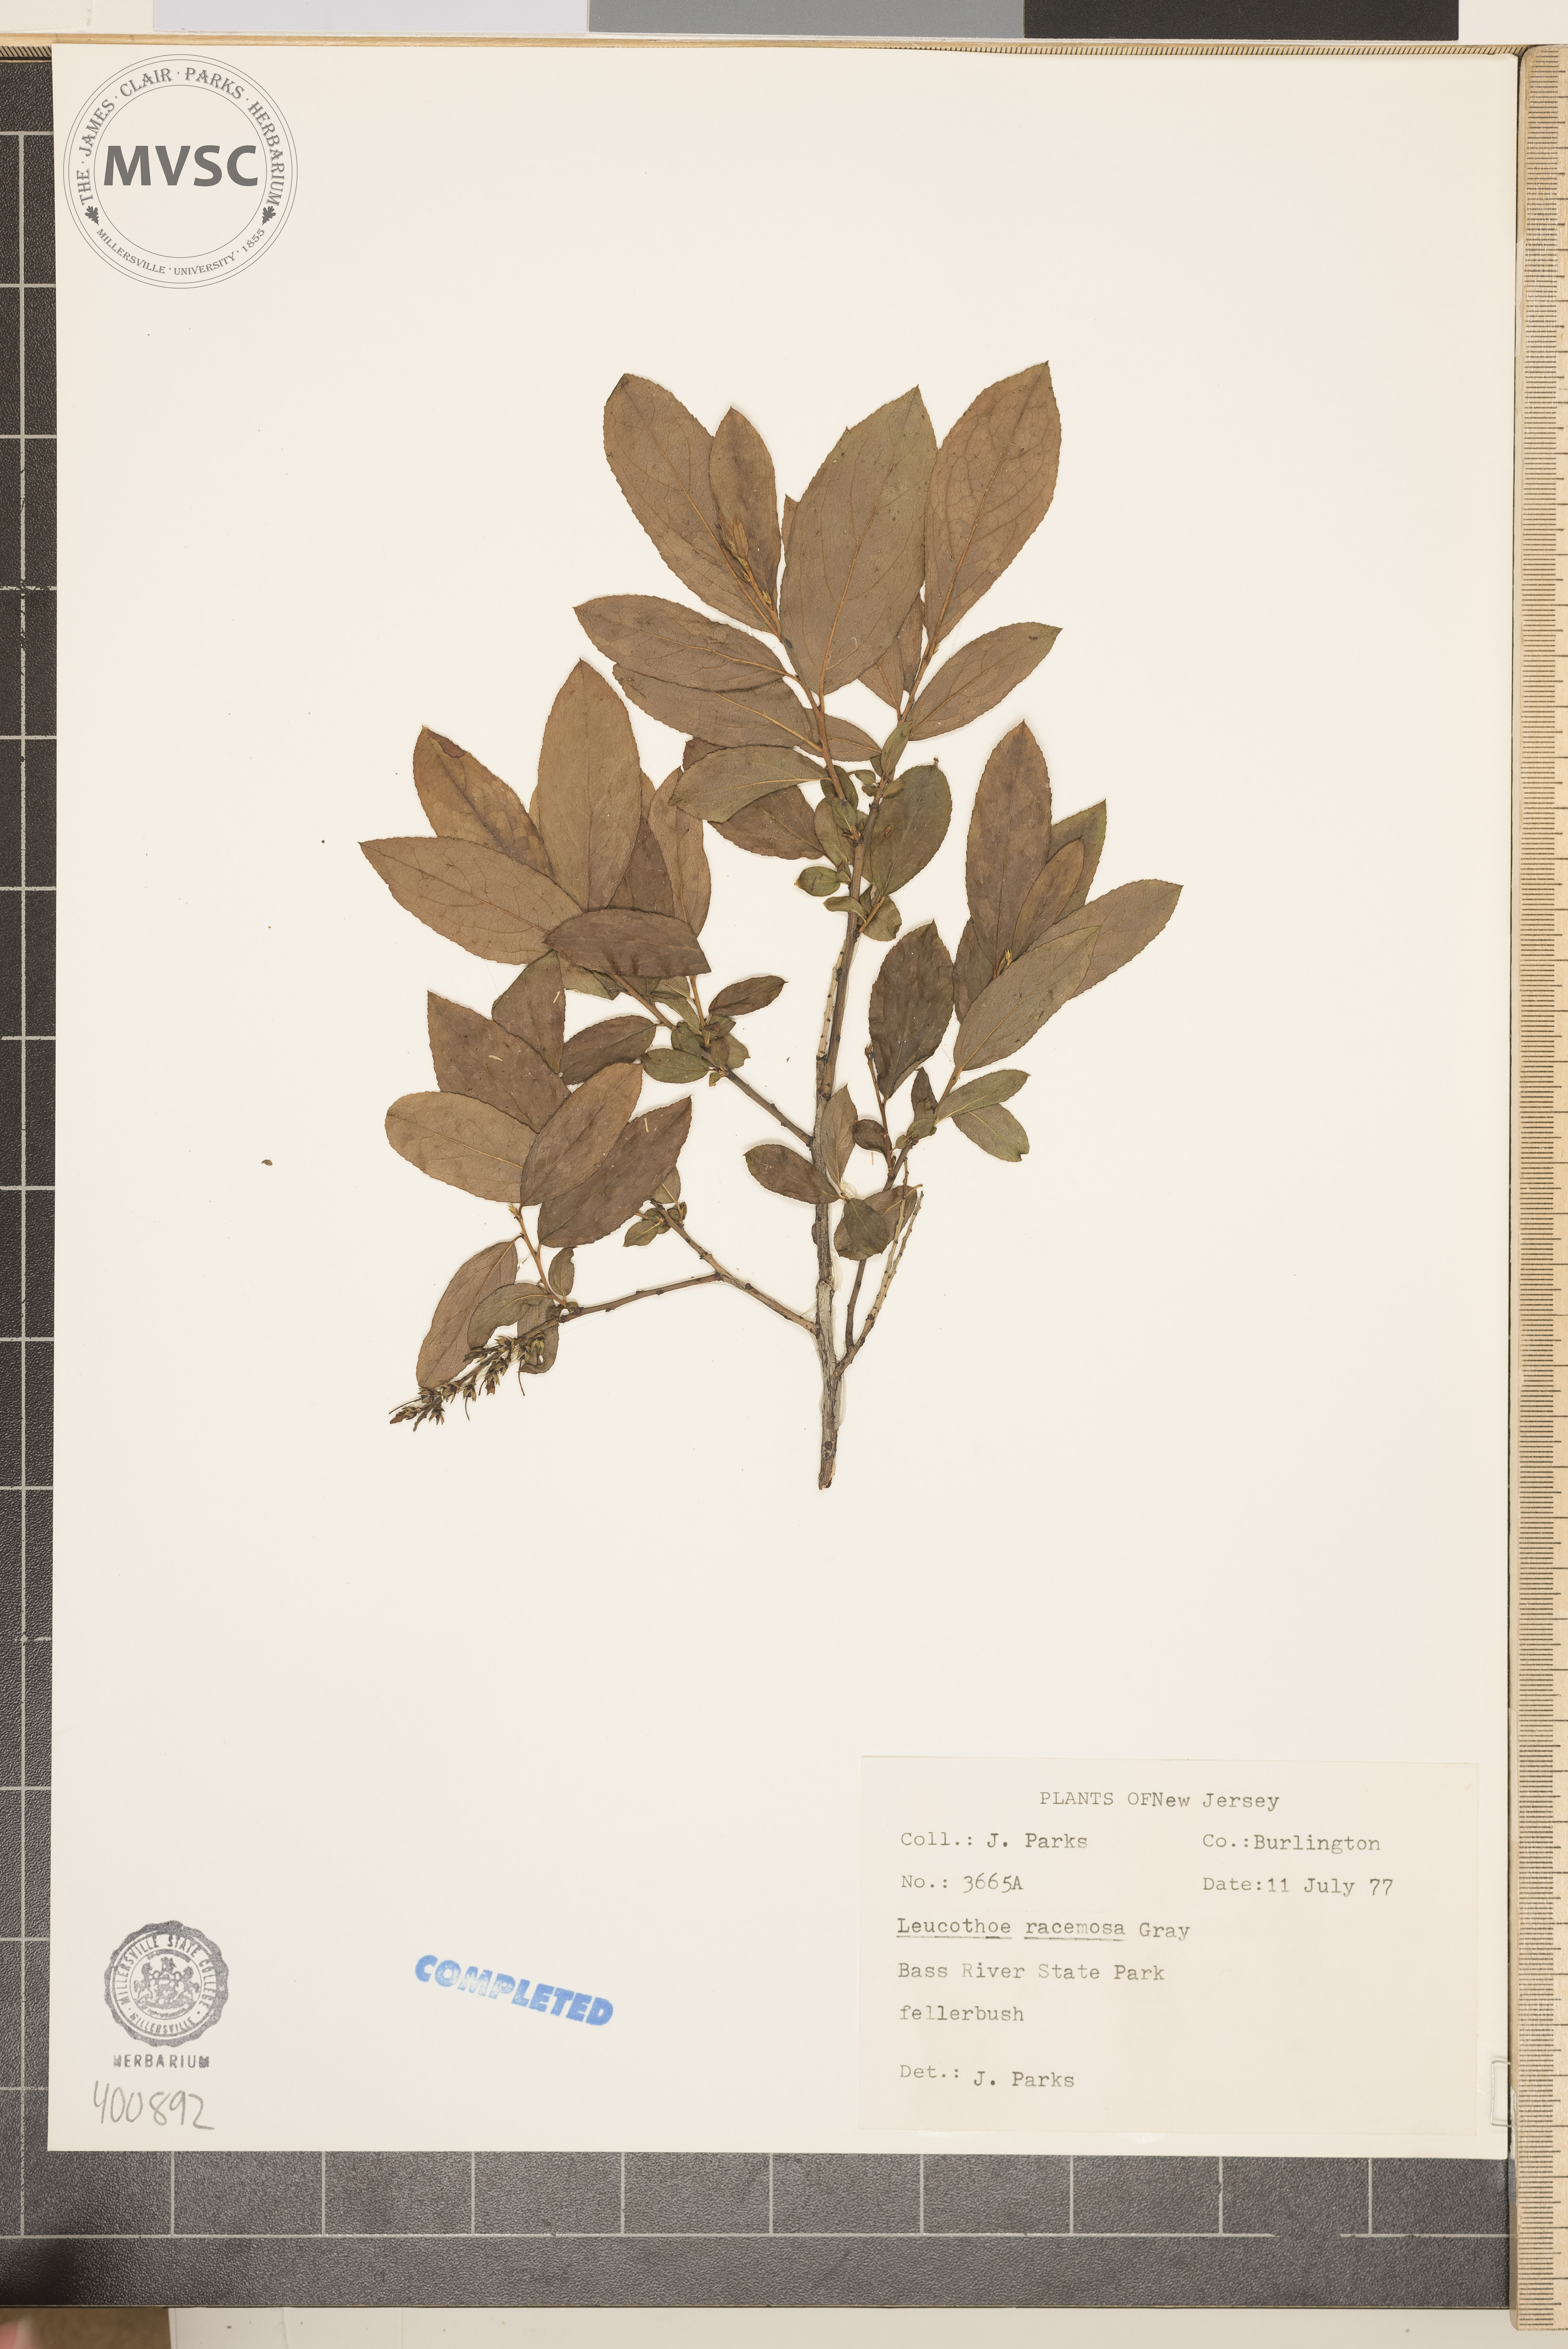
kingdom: Plantae
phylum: Tracheophyta
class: Magnoliopsida
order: Ericales
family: Ericaceae
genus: Eubotrys
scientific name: Eubotrys racemosa
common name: Fetterbush
